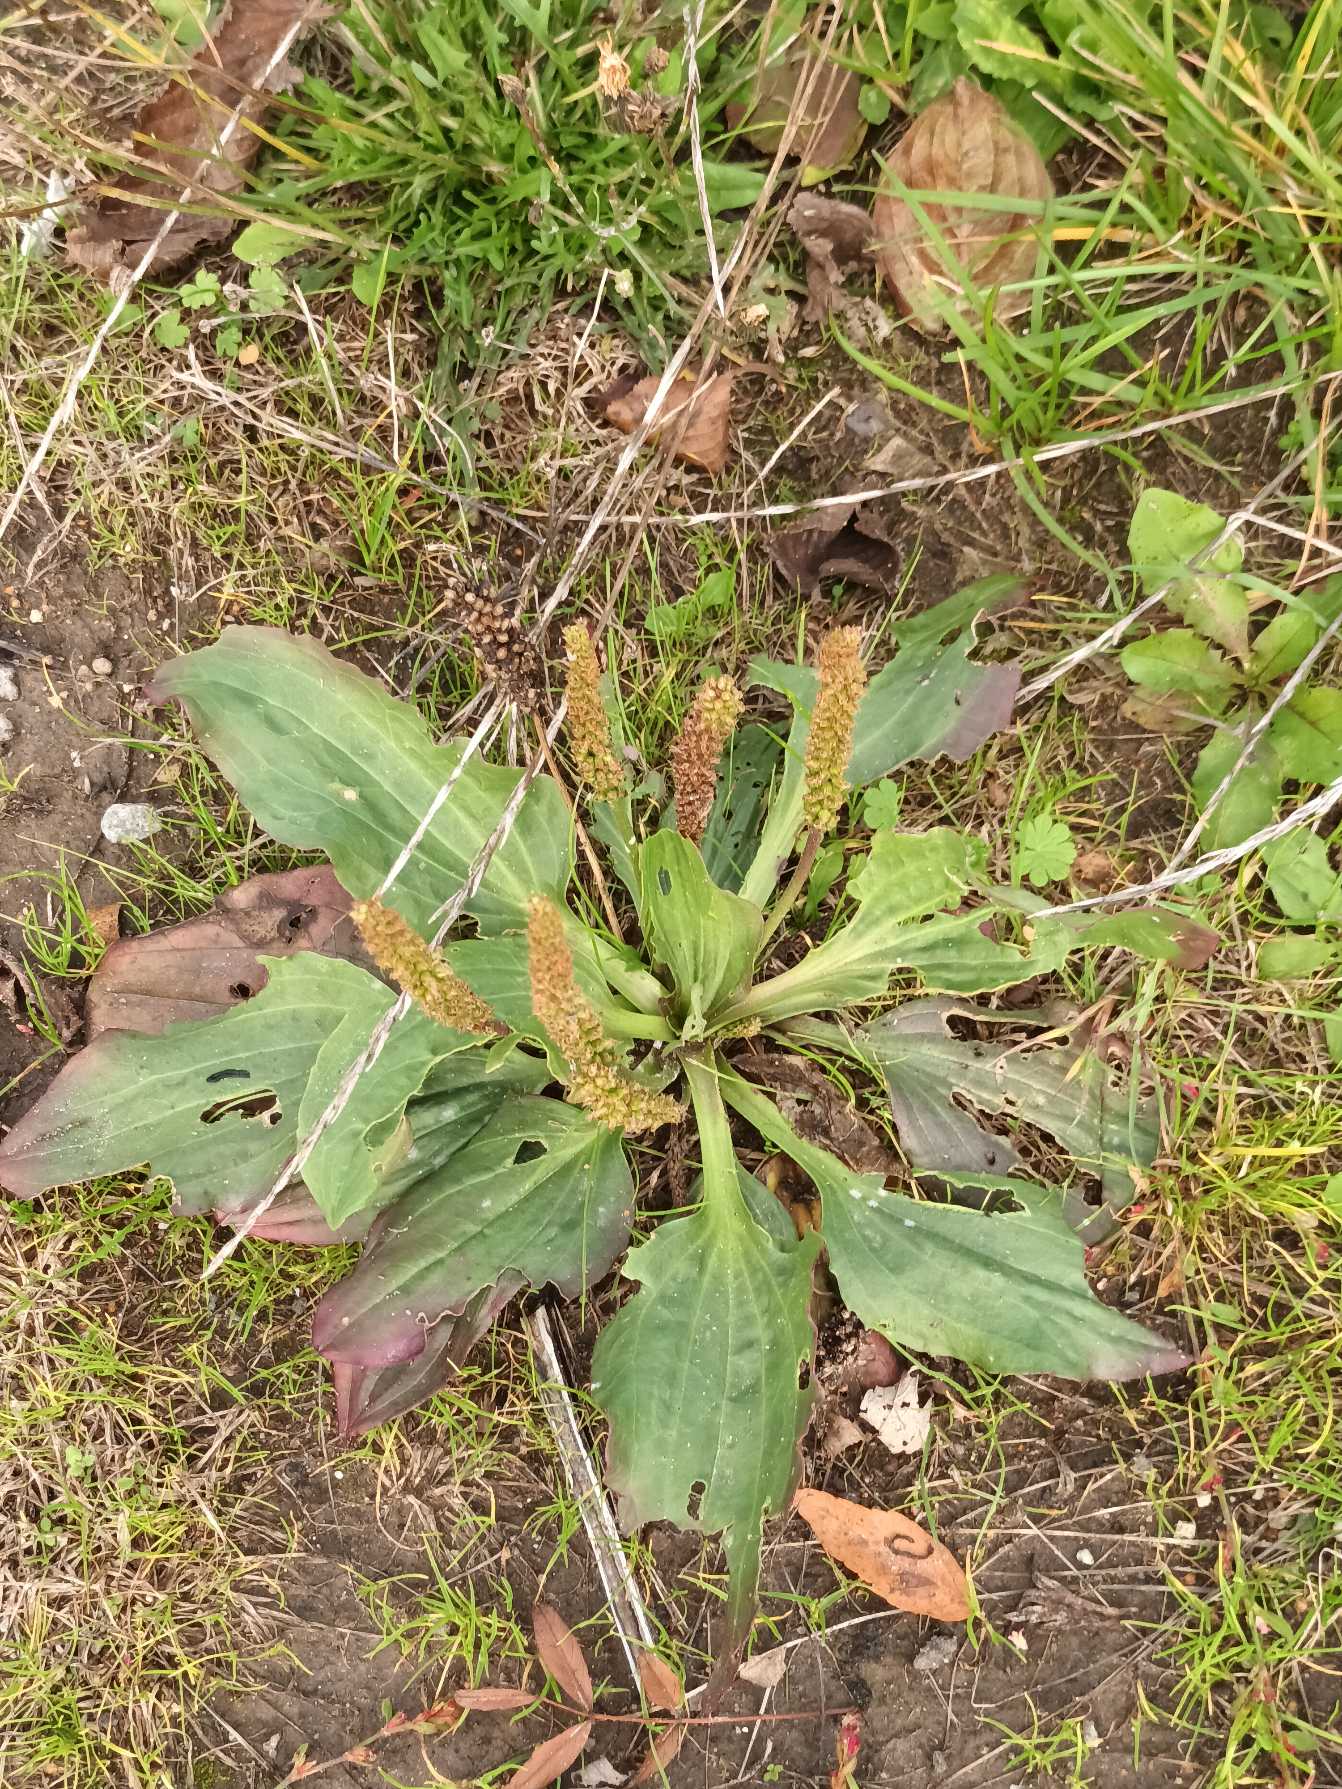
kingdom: Plantae
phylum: Tracheophyta
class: Magnoliopsida
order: Lamiales
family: Plantaginaceae
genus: Plantago
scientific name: Plantago major
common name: Glat vejbred
